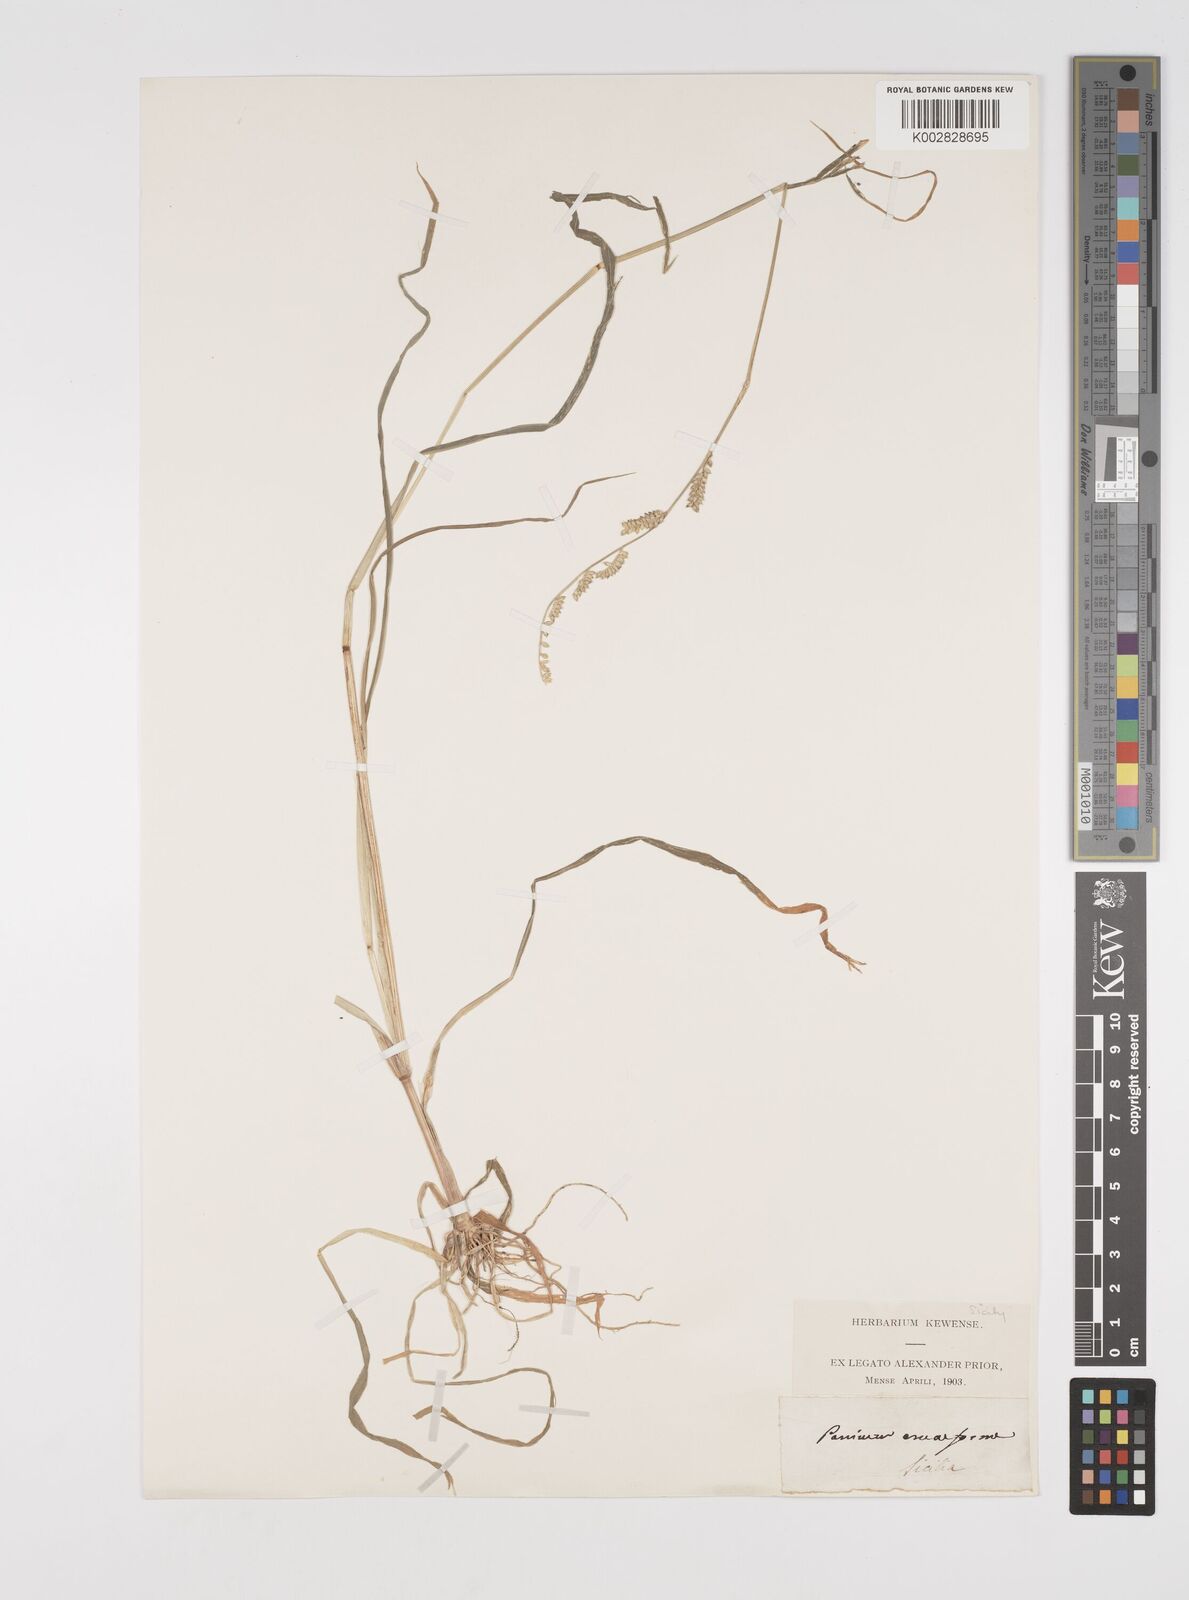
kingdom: Plantae
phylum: Tracheophyta
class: Liliopsida
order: Poales
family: Poaceae
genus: Echinochloa
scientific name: Echinochloa colonum
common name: Jungle rice
